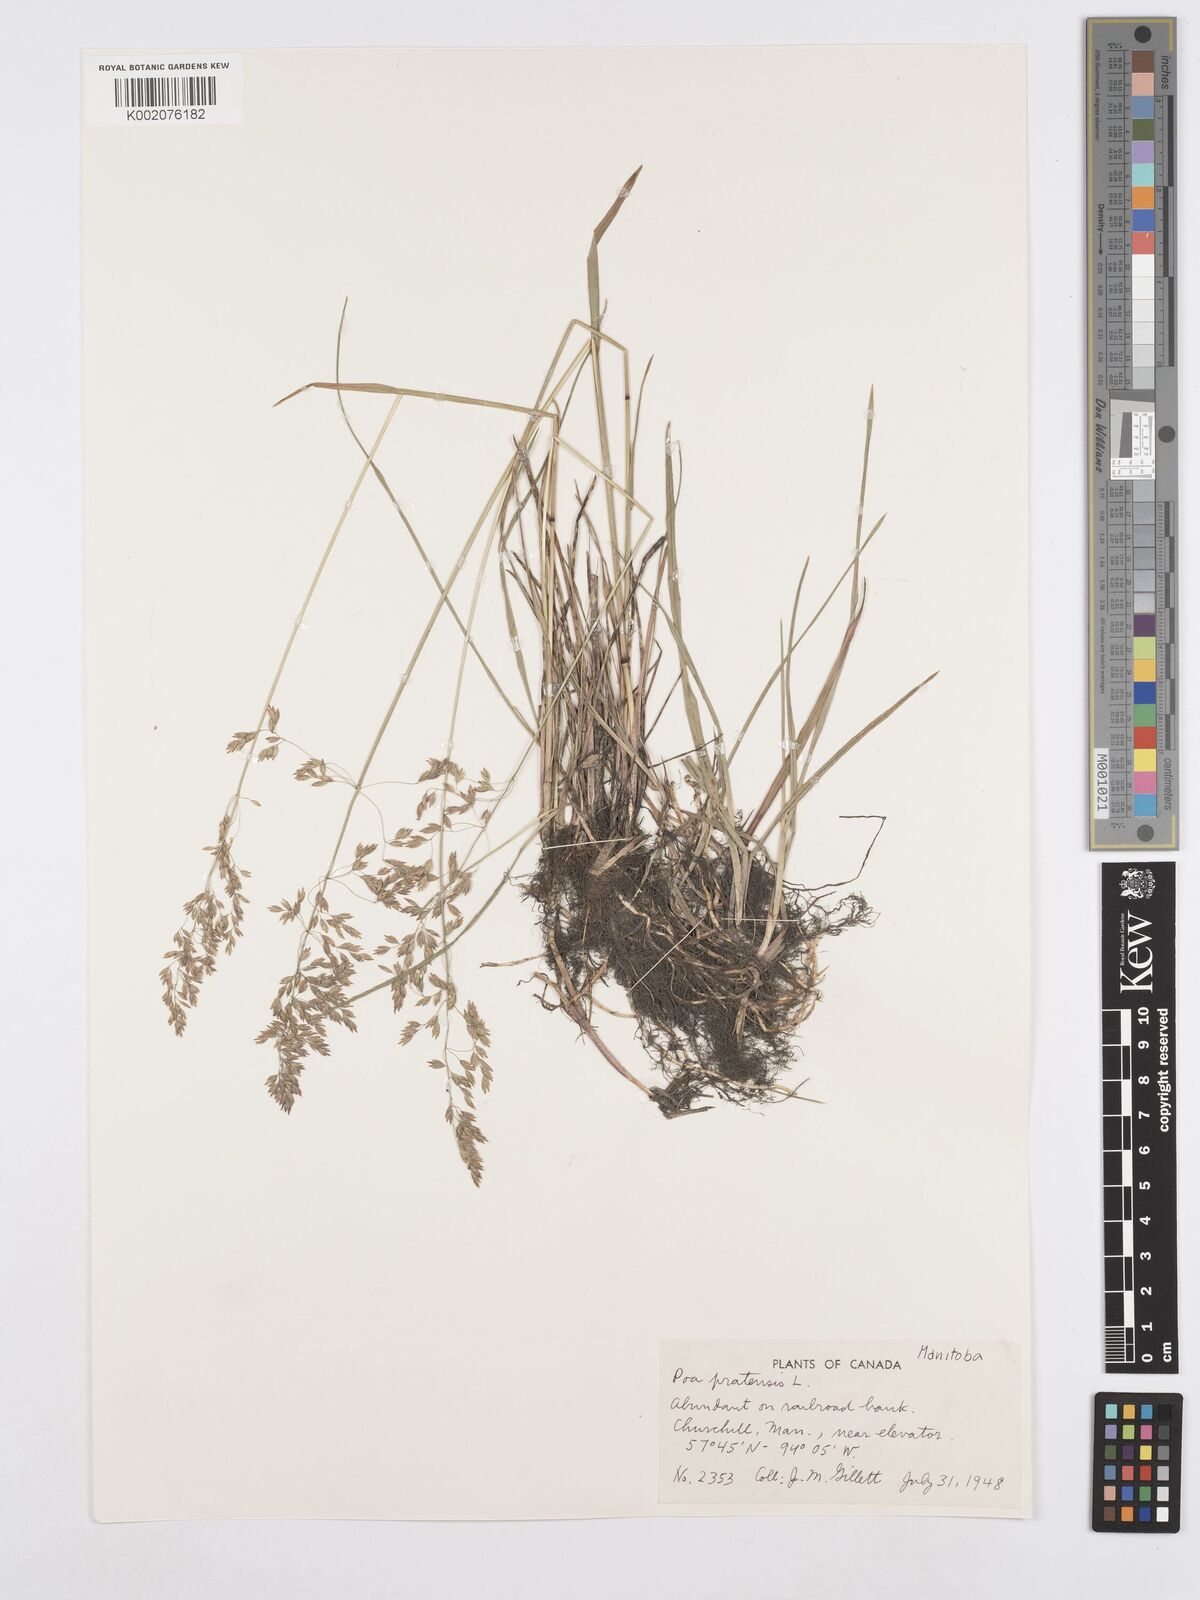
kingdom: Plantae
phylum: Tracheophyta
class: Liliopsida
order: Poales
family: Poaceae
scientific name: Poaceae
